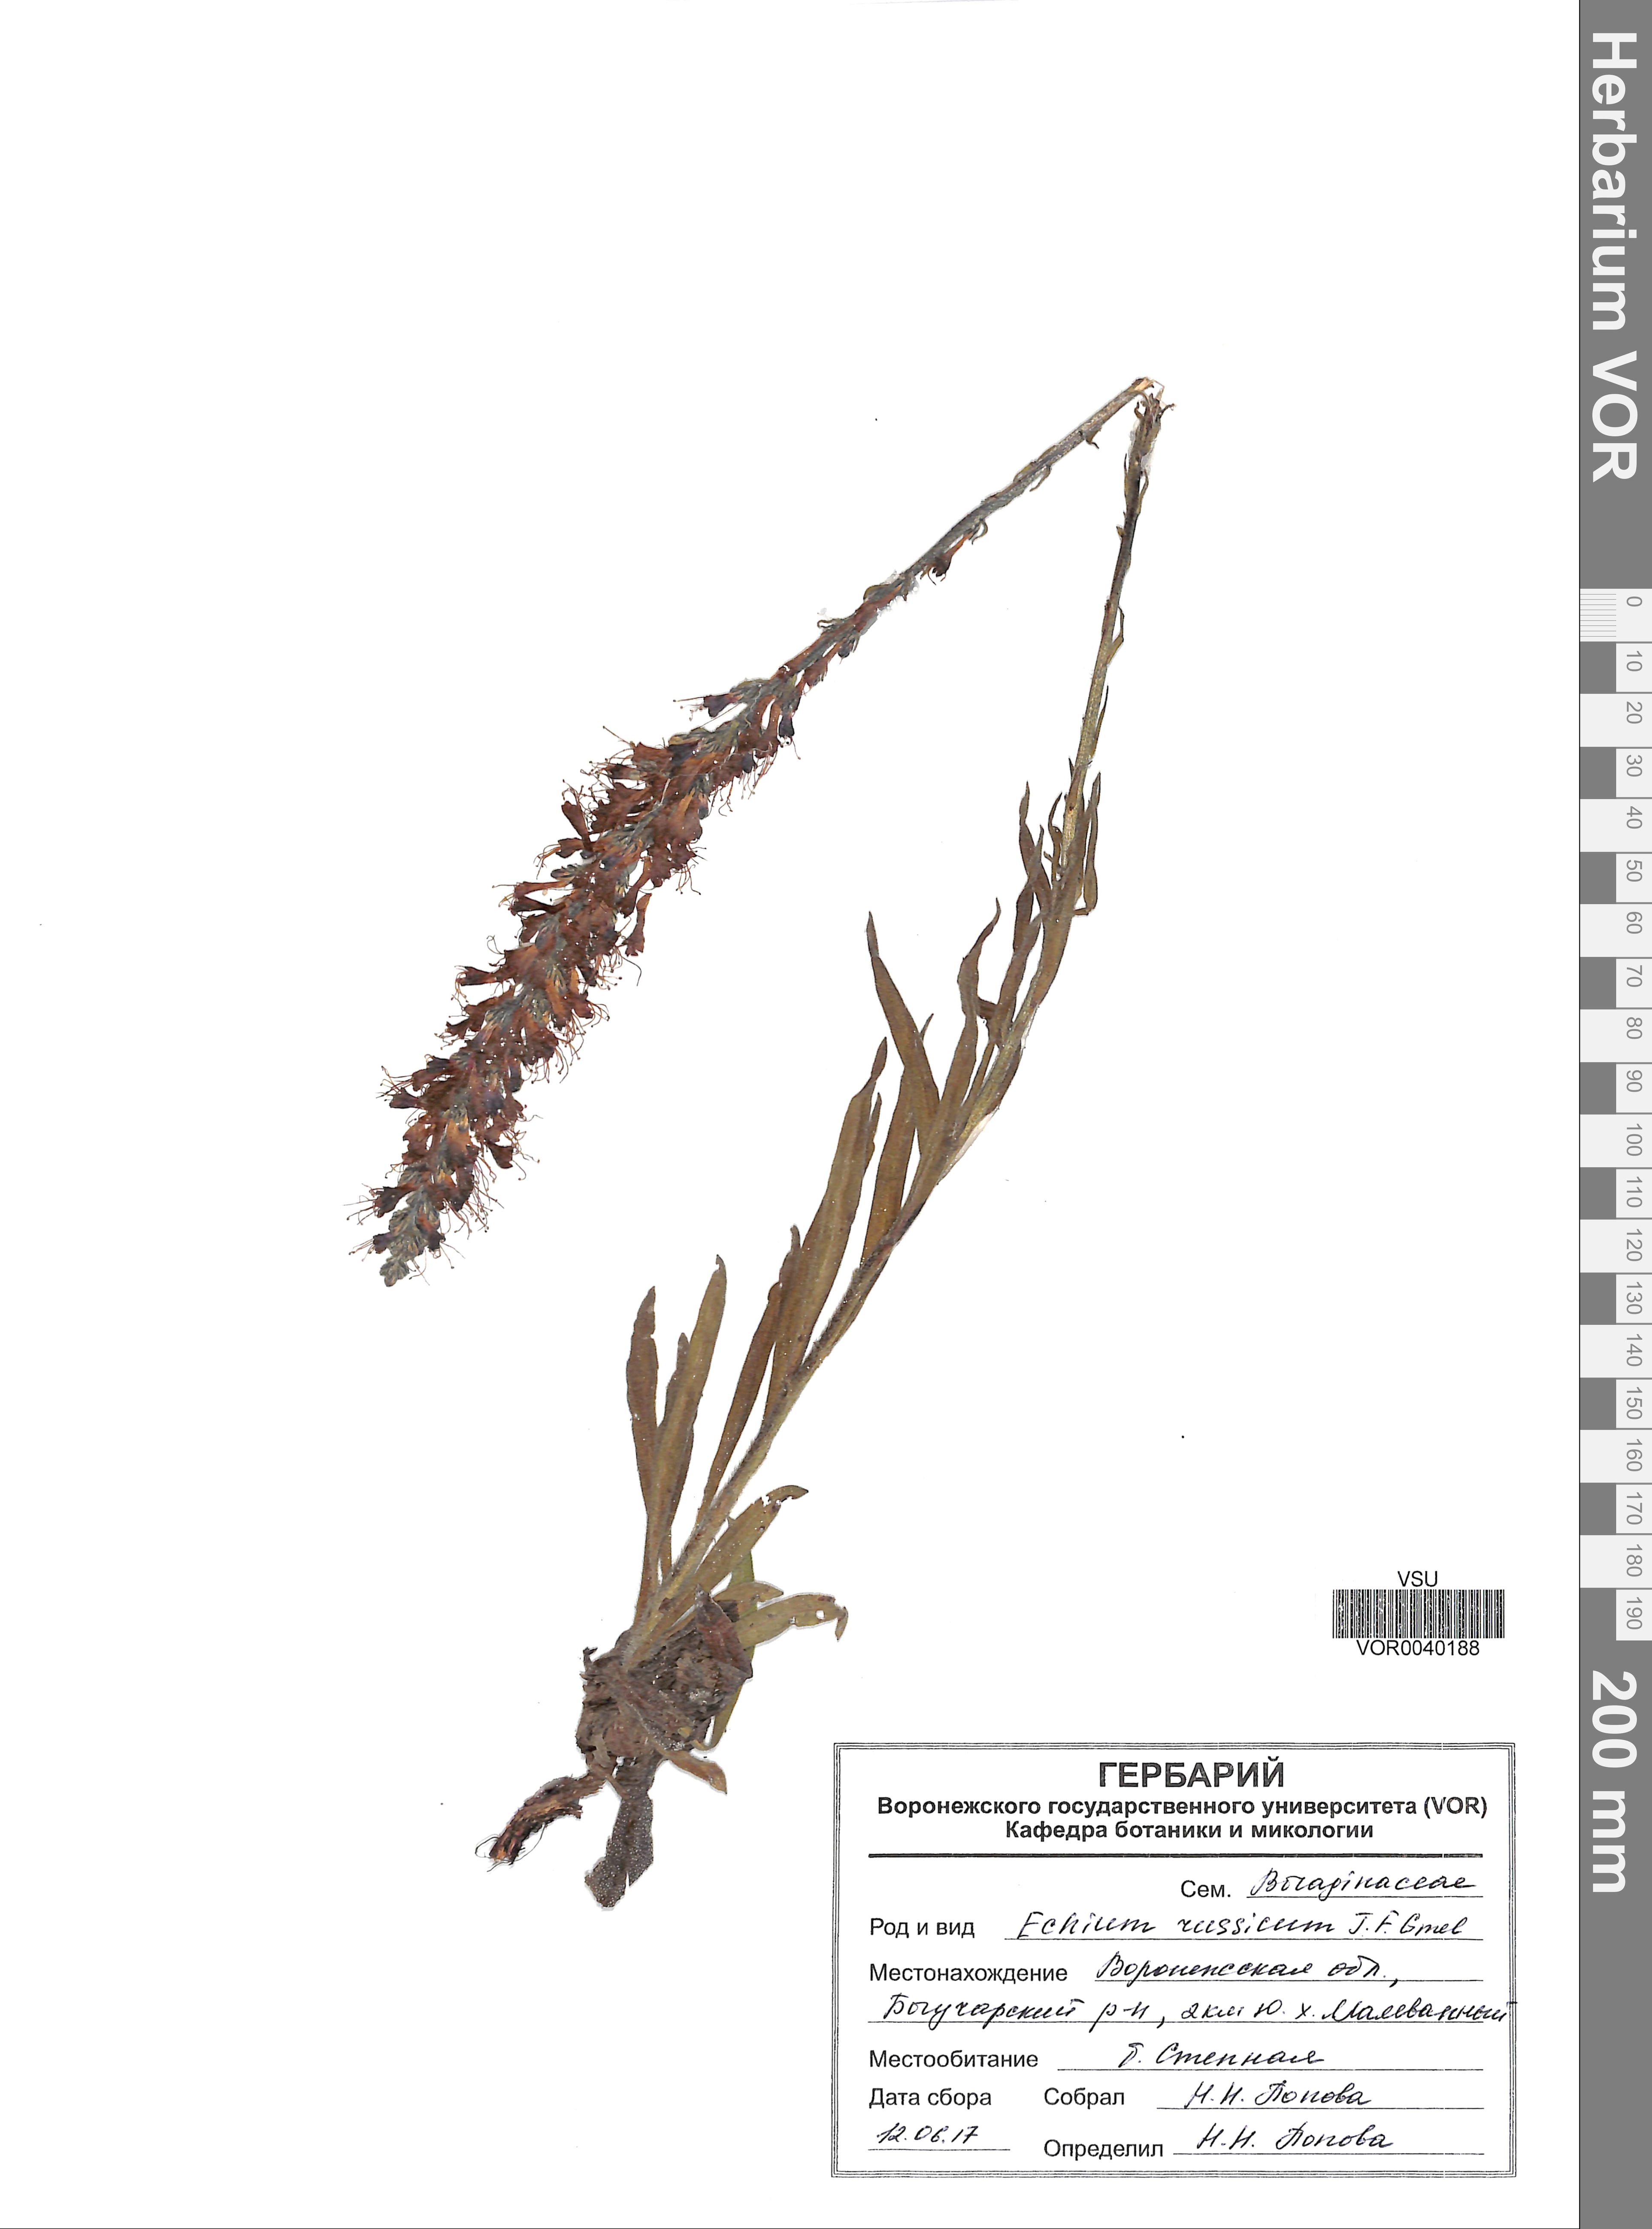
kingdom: Plantae
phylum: Tracheophyta
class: Magnoliopsida
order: Boraginales
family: Boraginaceae
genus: Pontechium
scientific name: Pontechium maculatum
